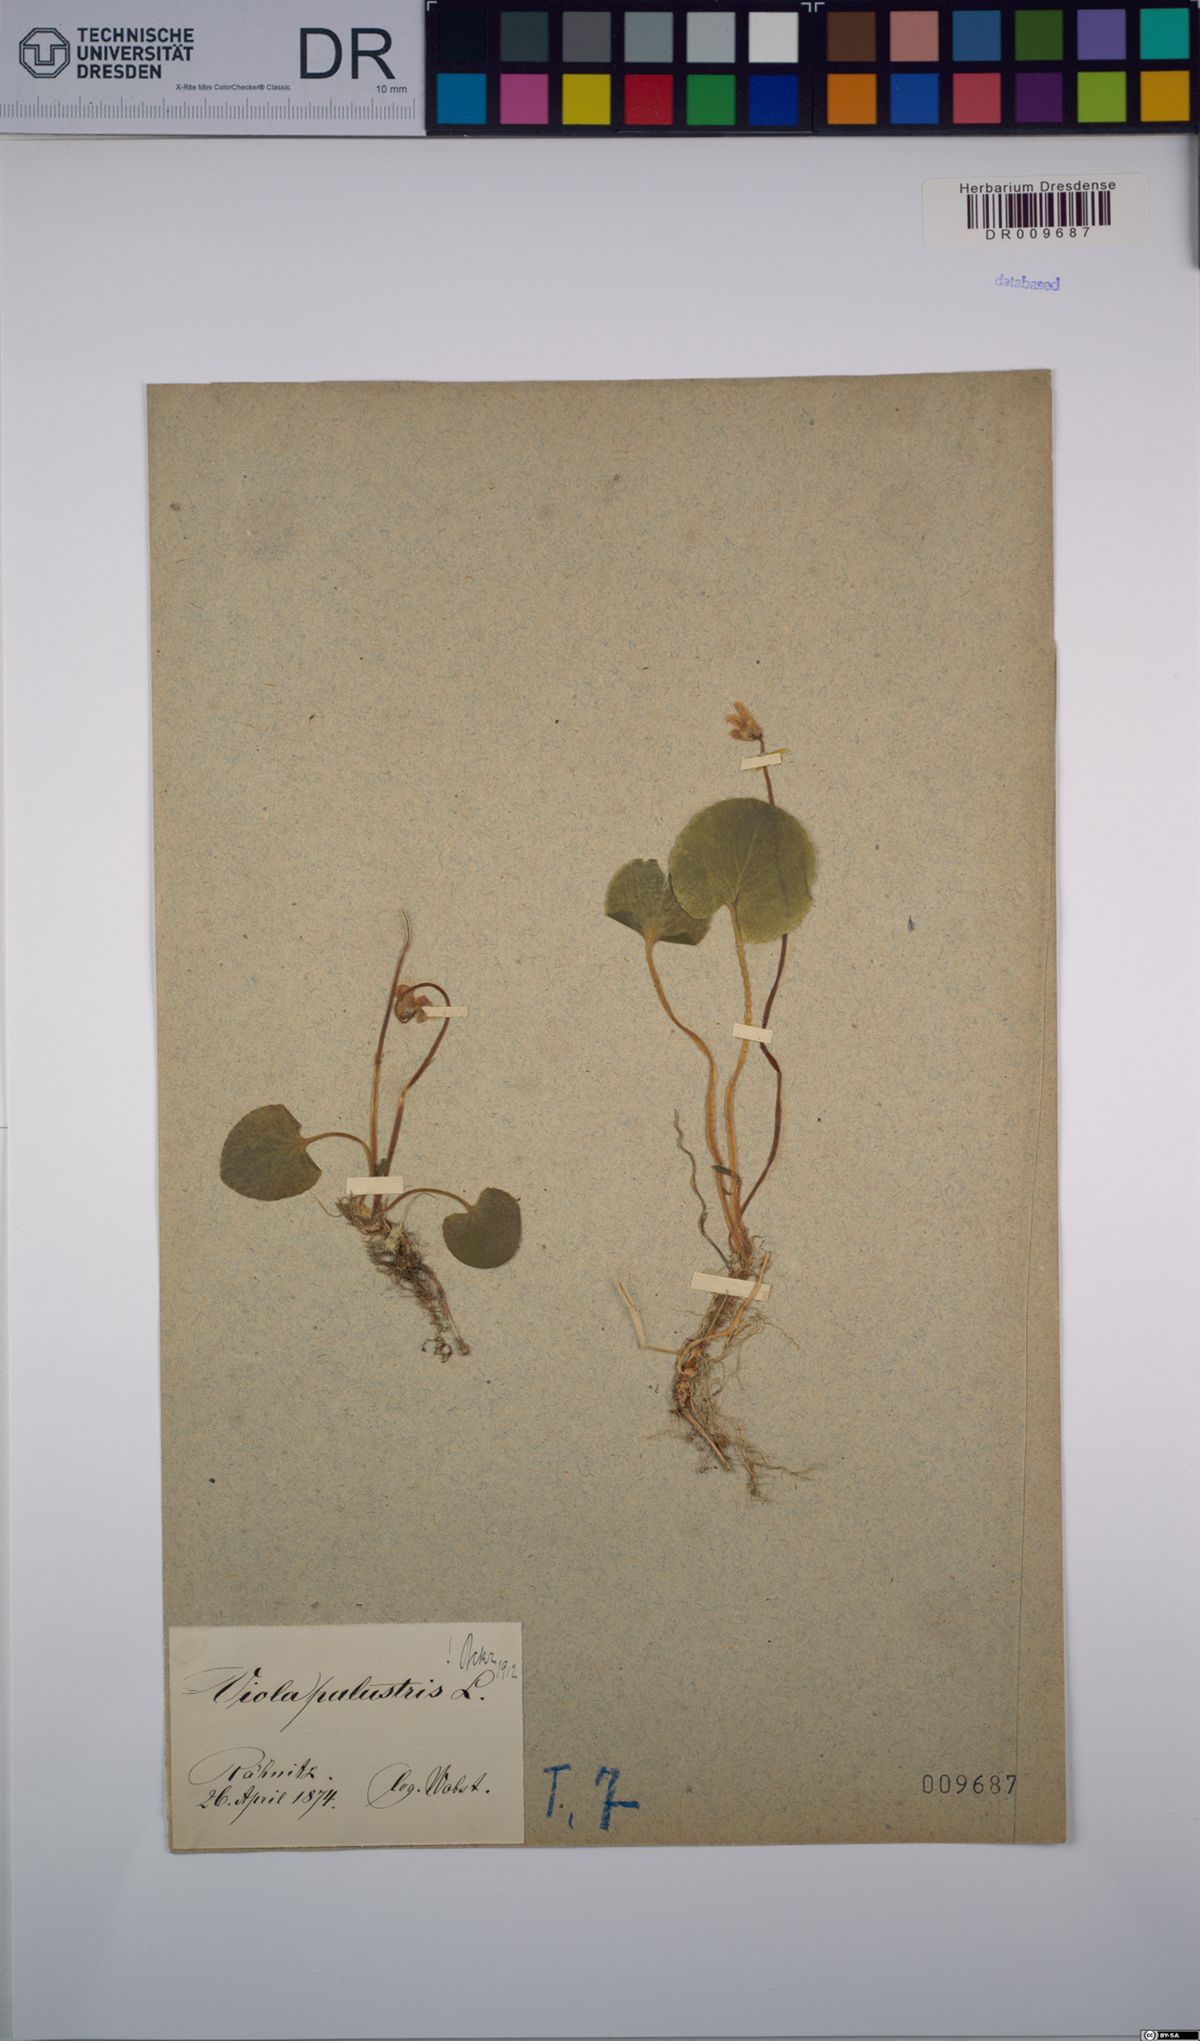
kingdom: Plantae
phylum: Tracheophyta
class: Magnoliopsida
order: Malpighiales
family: Violaceae
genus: Viola
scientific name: Viola palustris
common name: Marsh violet
